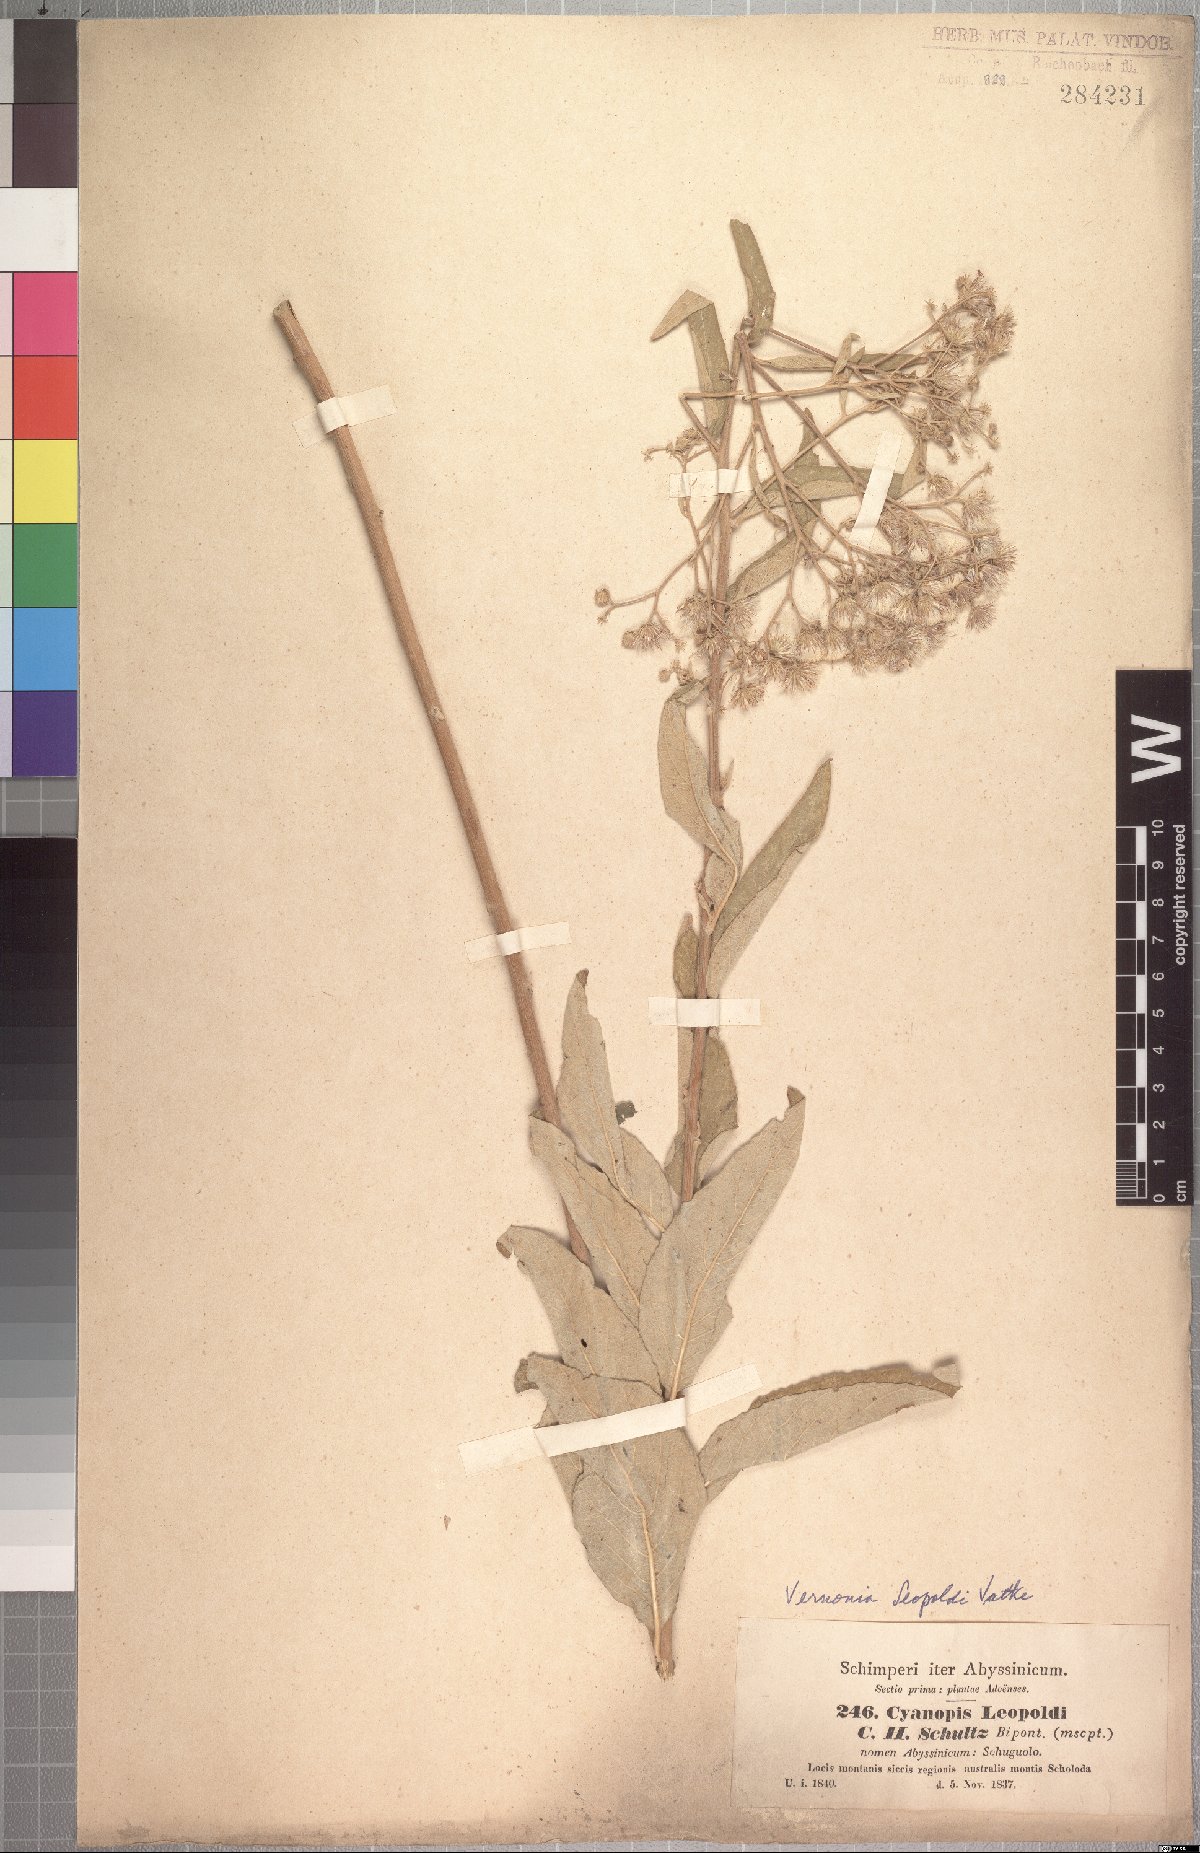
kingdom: Plantae
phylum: Tracheophyta
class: Magnoliopsida
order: Asterales
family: Asteraceae
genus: Vernonia
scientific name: Vernonia bipontini
